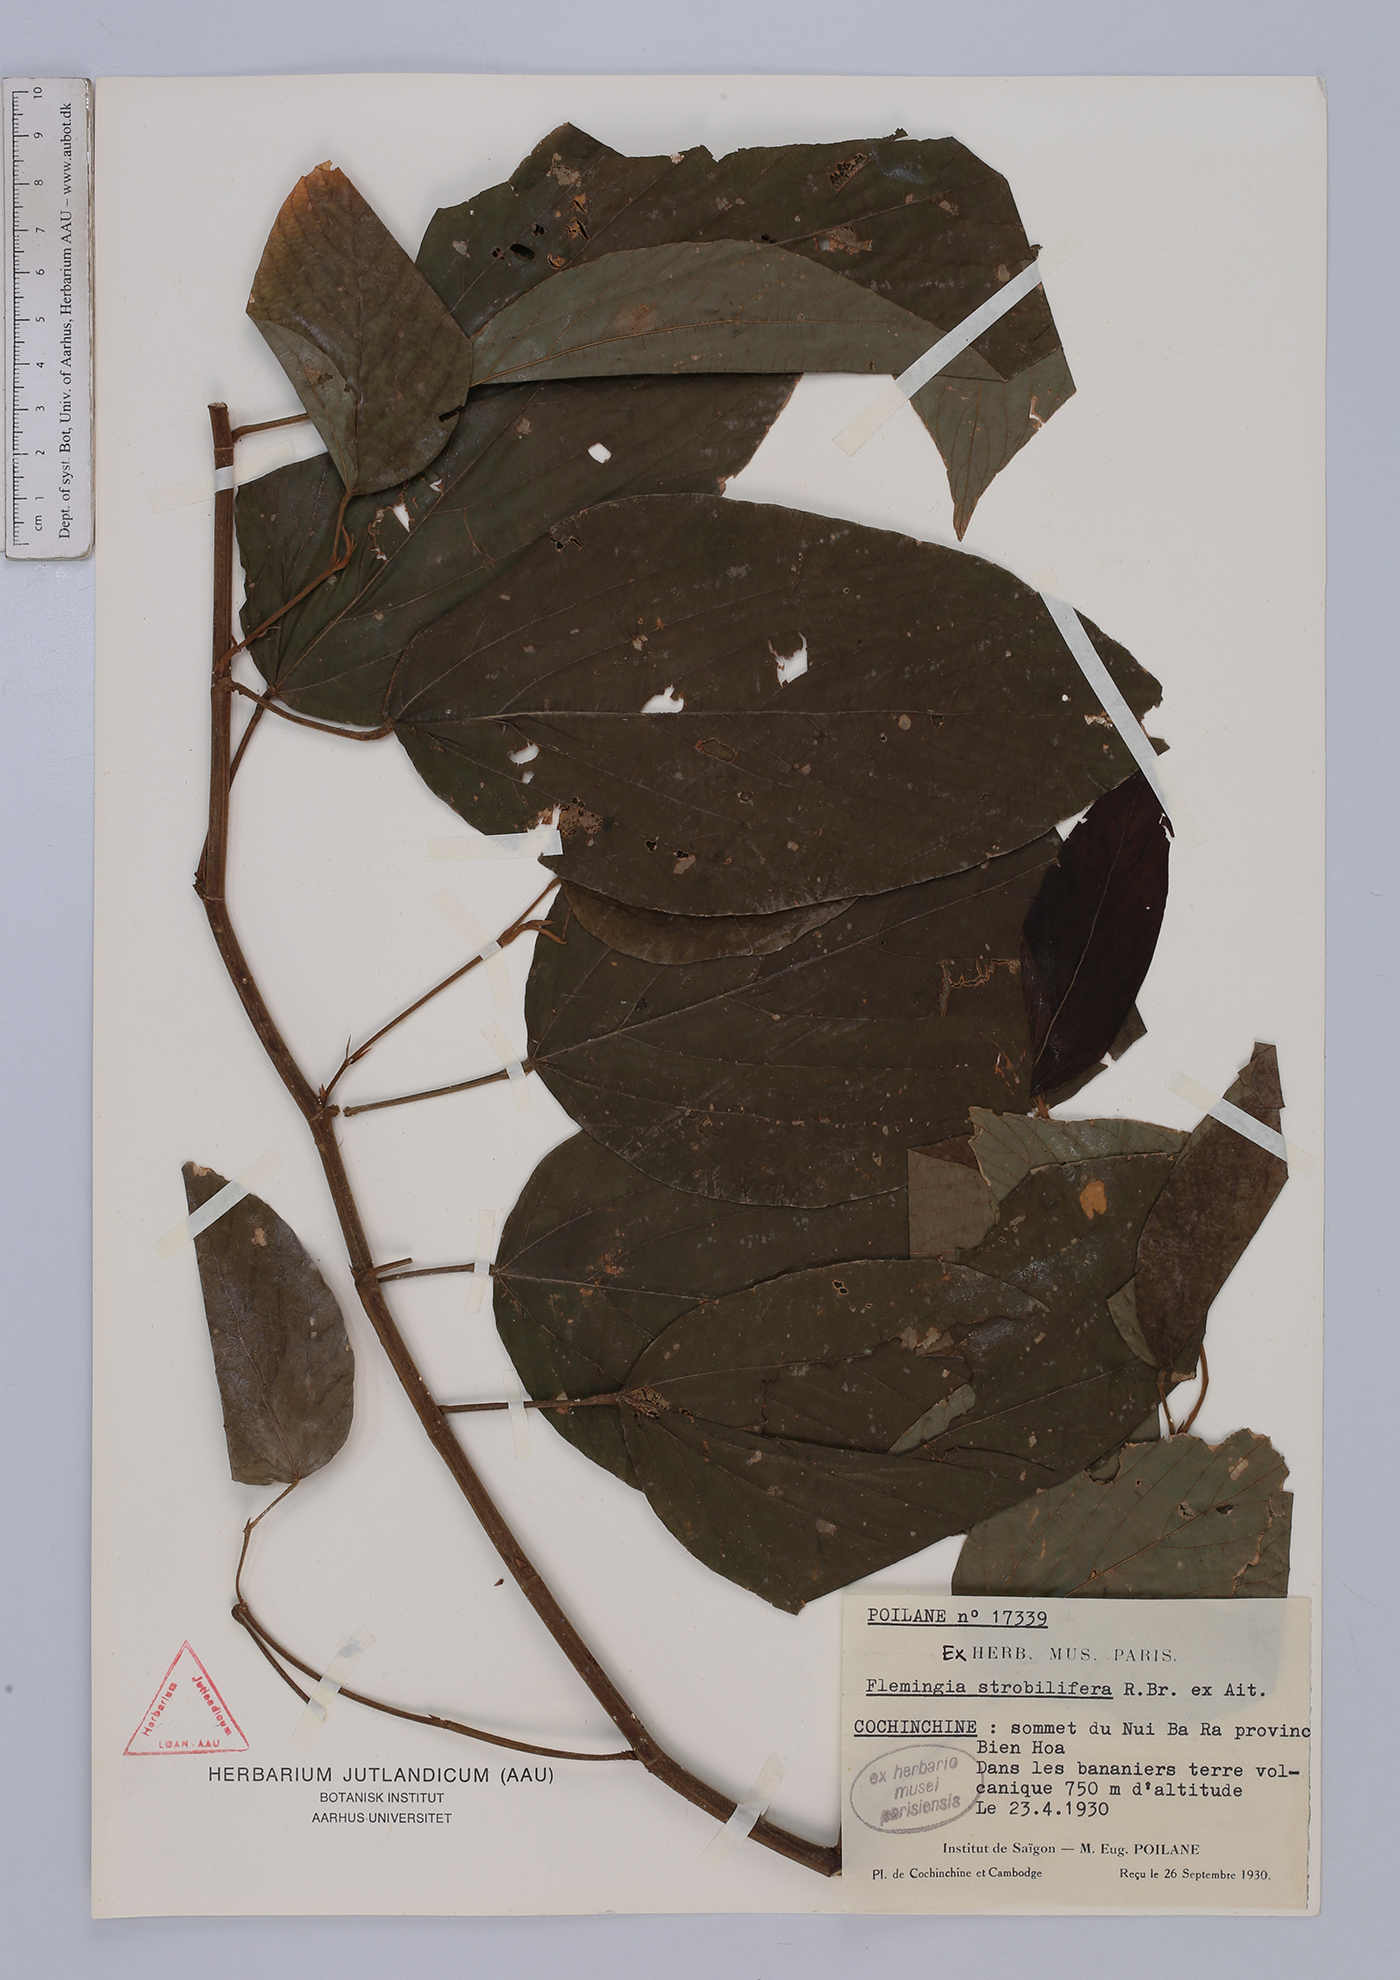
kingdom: Plantae
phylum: Tracheophyta
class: Magnoliopsida
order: Fabales
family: Fabaceae
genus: Flemingia
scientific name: Flemingia strobilifera
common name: Wild hops
